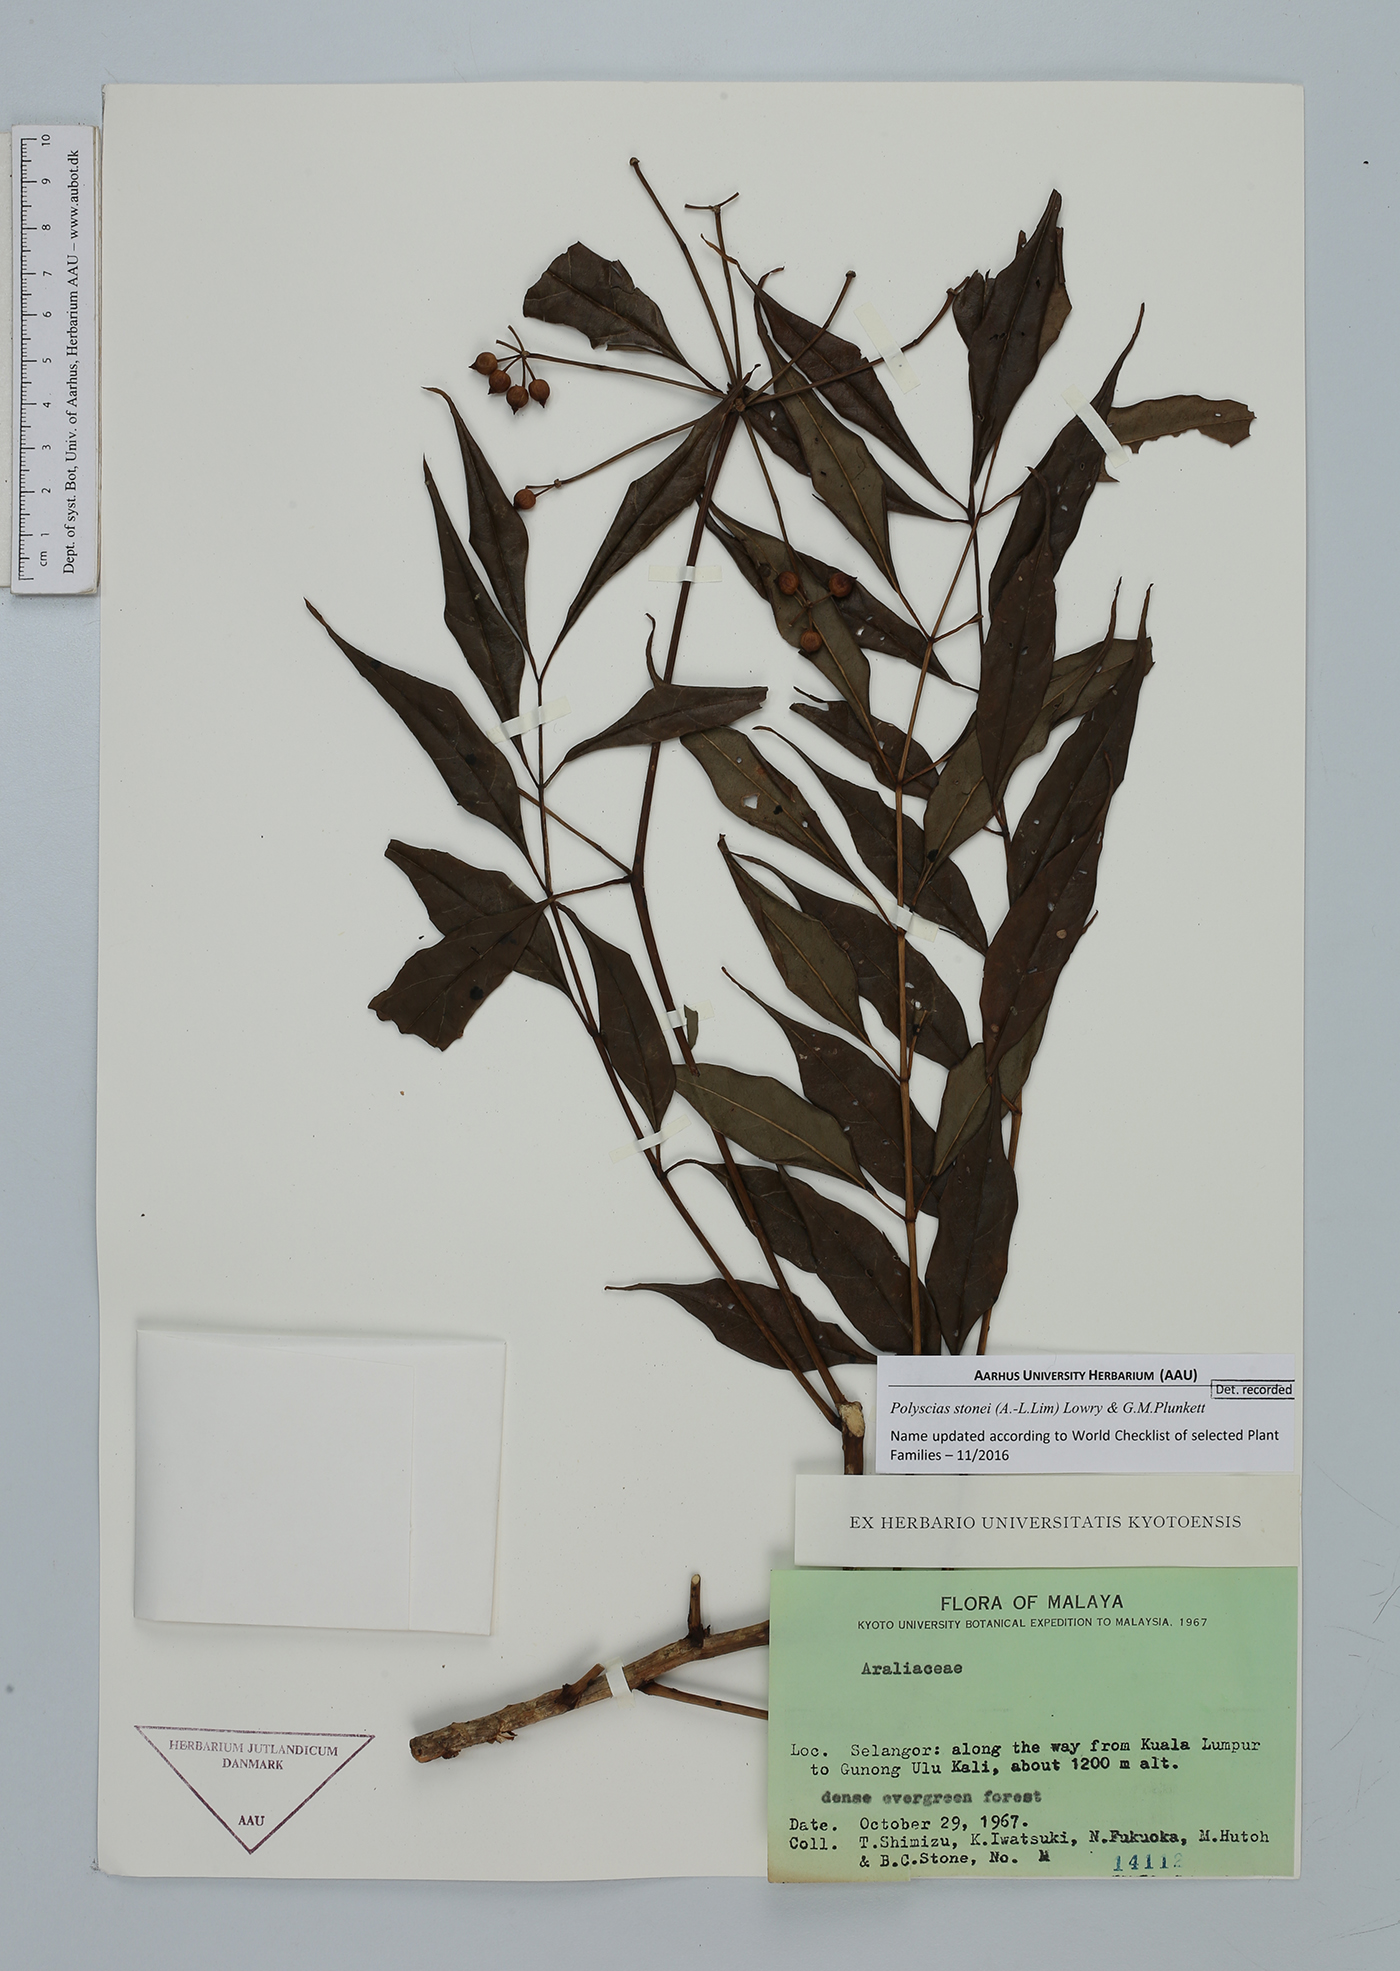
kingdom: Plantae
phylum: Tracheophyta
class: Magnoliopsida
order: Apiales
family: Araliaceae
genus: Polyscias
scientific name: Polyscias stonei
